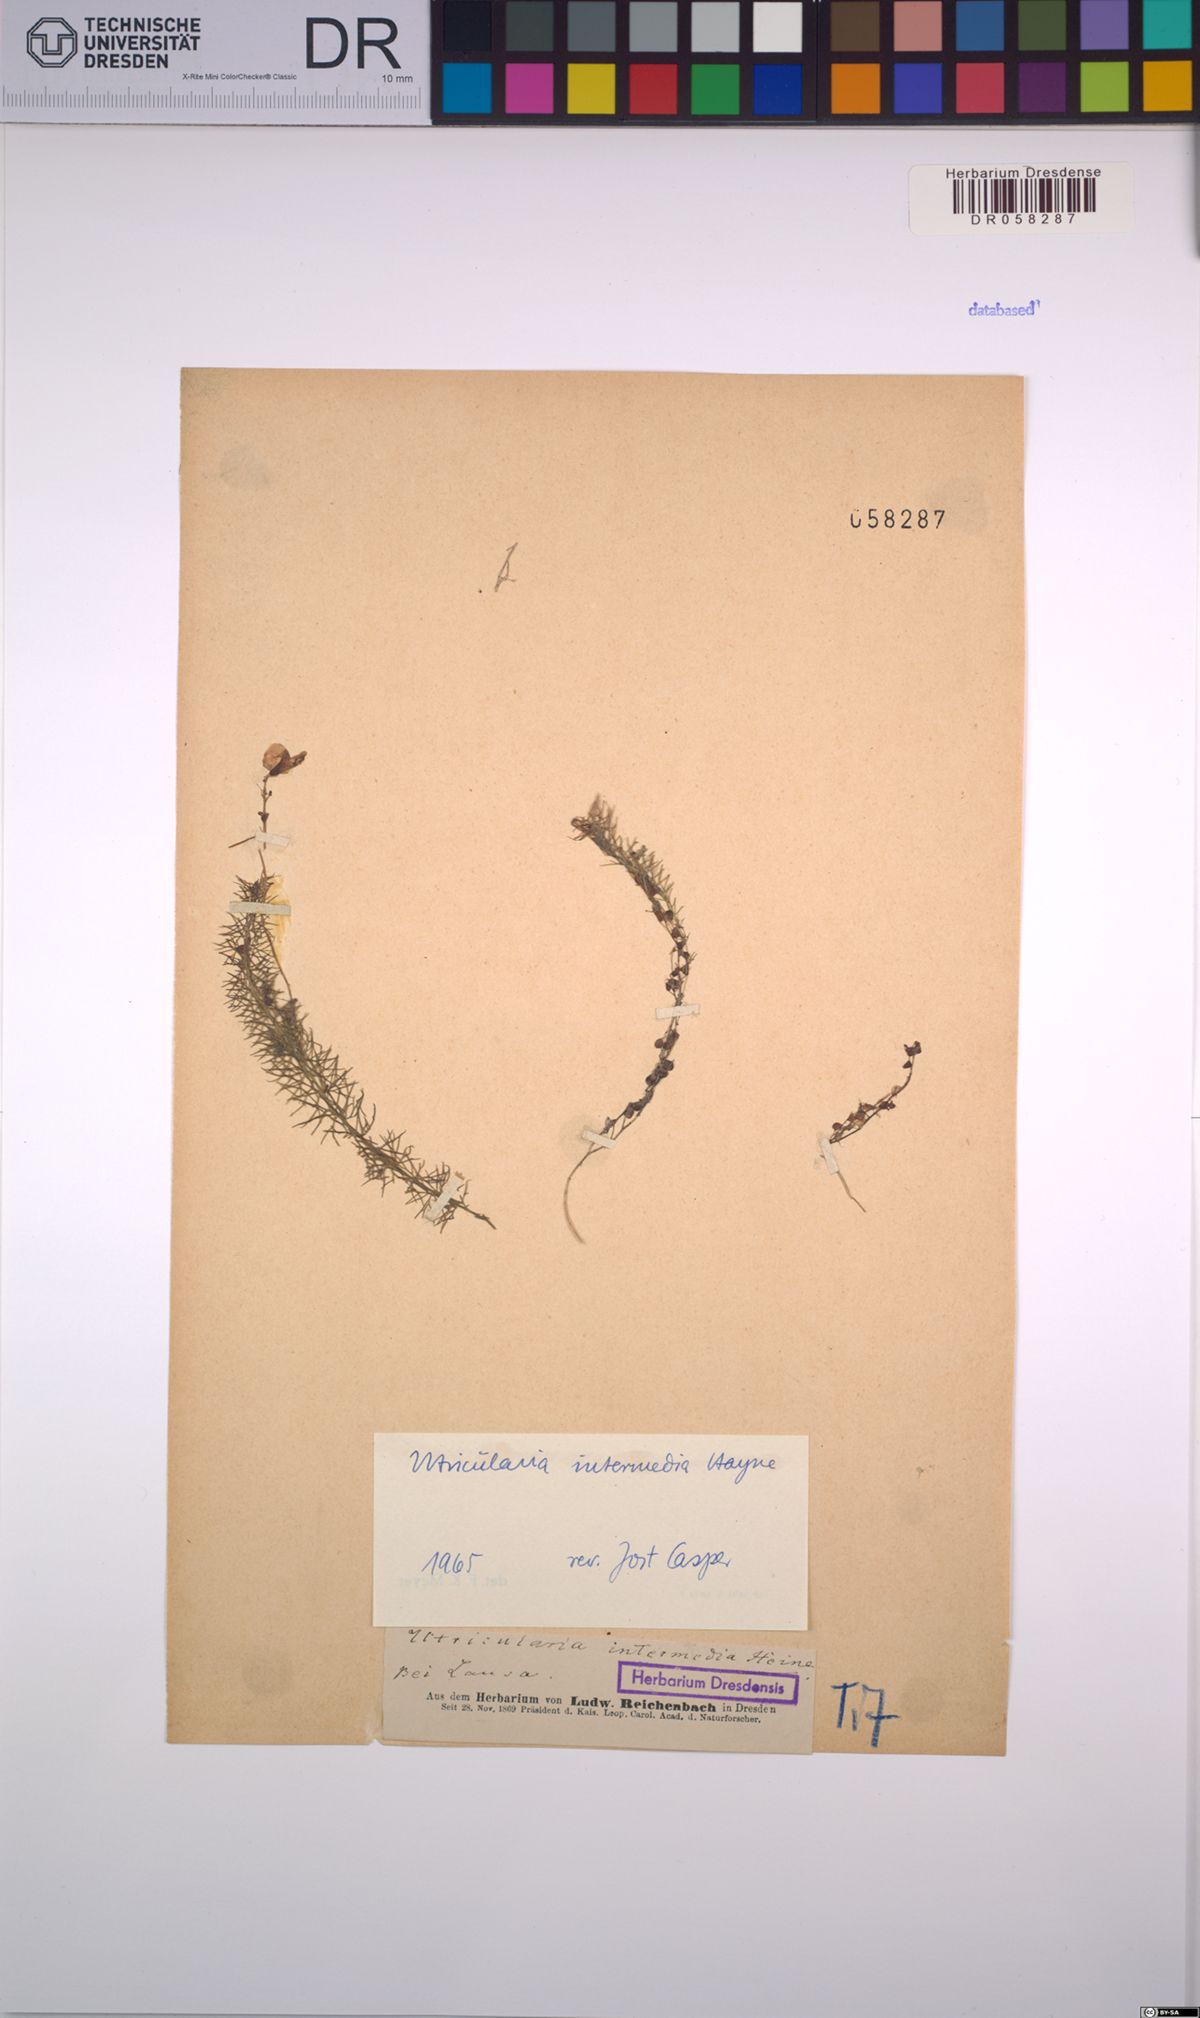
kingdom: Plantae
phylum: Tracheophyta
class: Magnoliopsida
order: Lamiales
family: Lentibulariaceae
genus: Utricularia
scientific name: Utricularia intermedia
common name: Intermediate bladderwort
